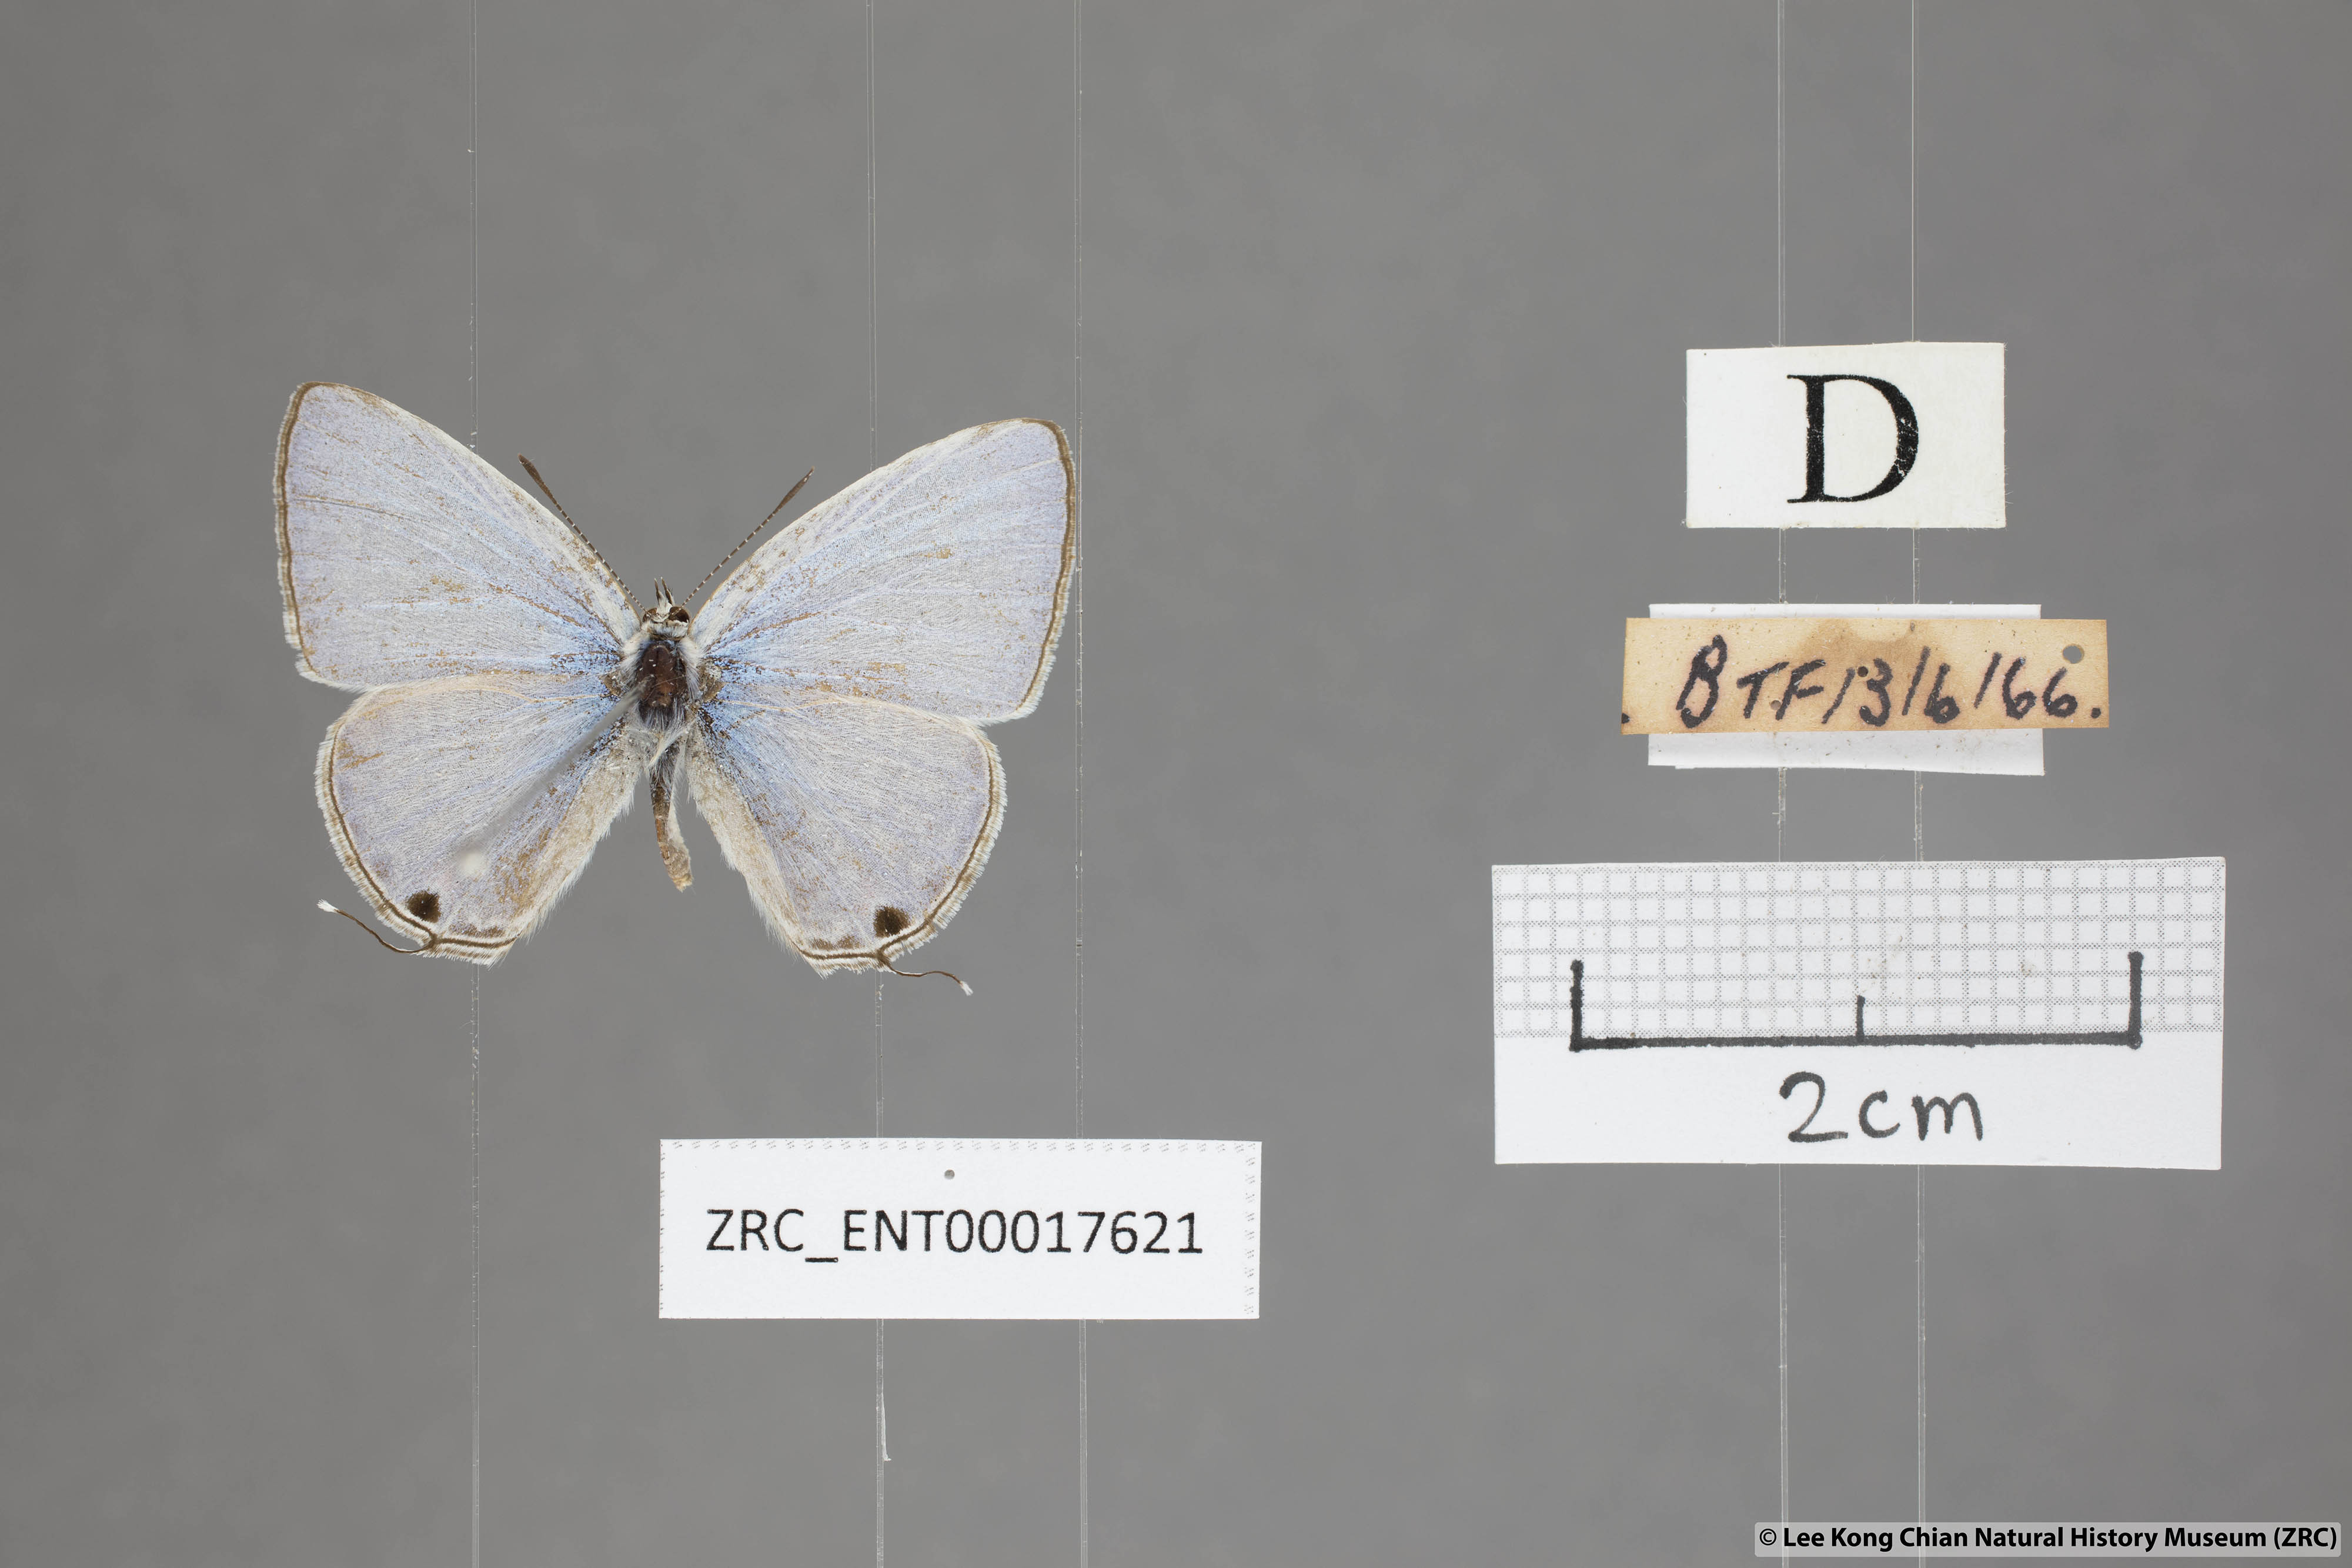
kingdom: Animalia
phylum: Arthropoda
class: Insecta
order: Lepidoptera
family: Lycaenidae
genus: Catochrysops
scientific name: Catochrysops panormus
